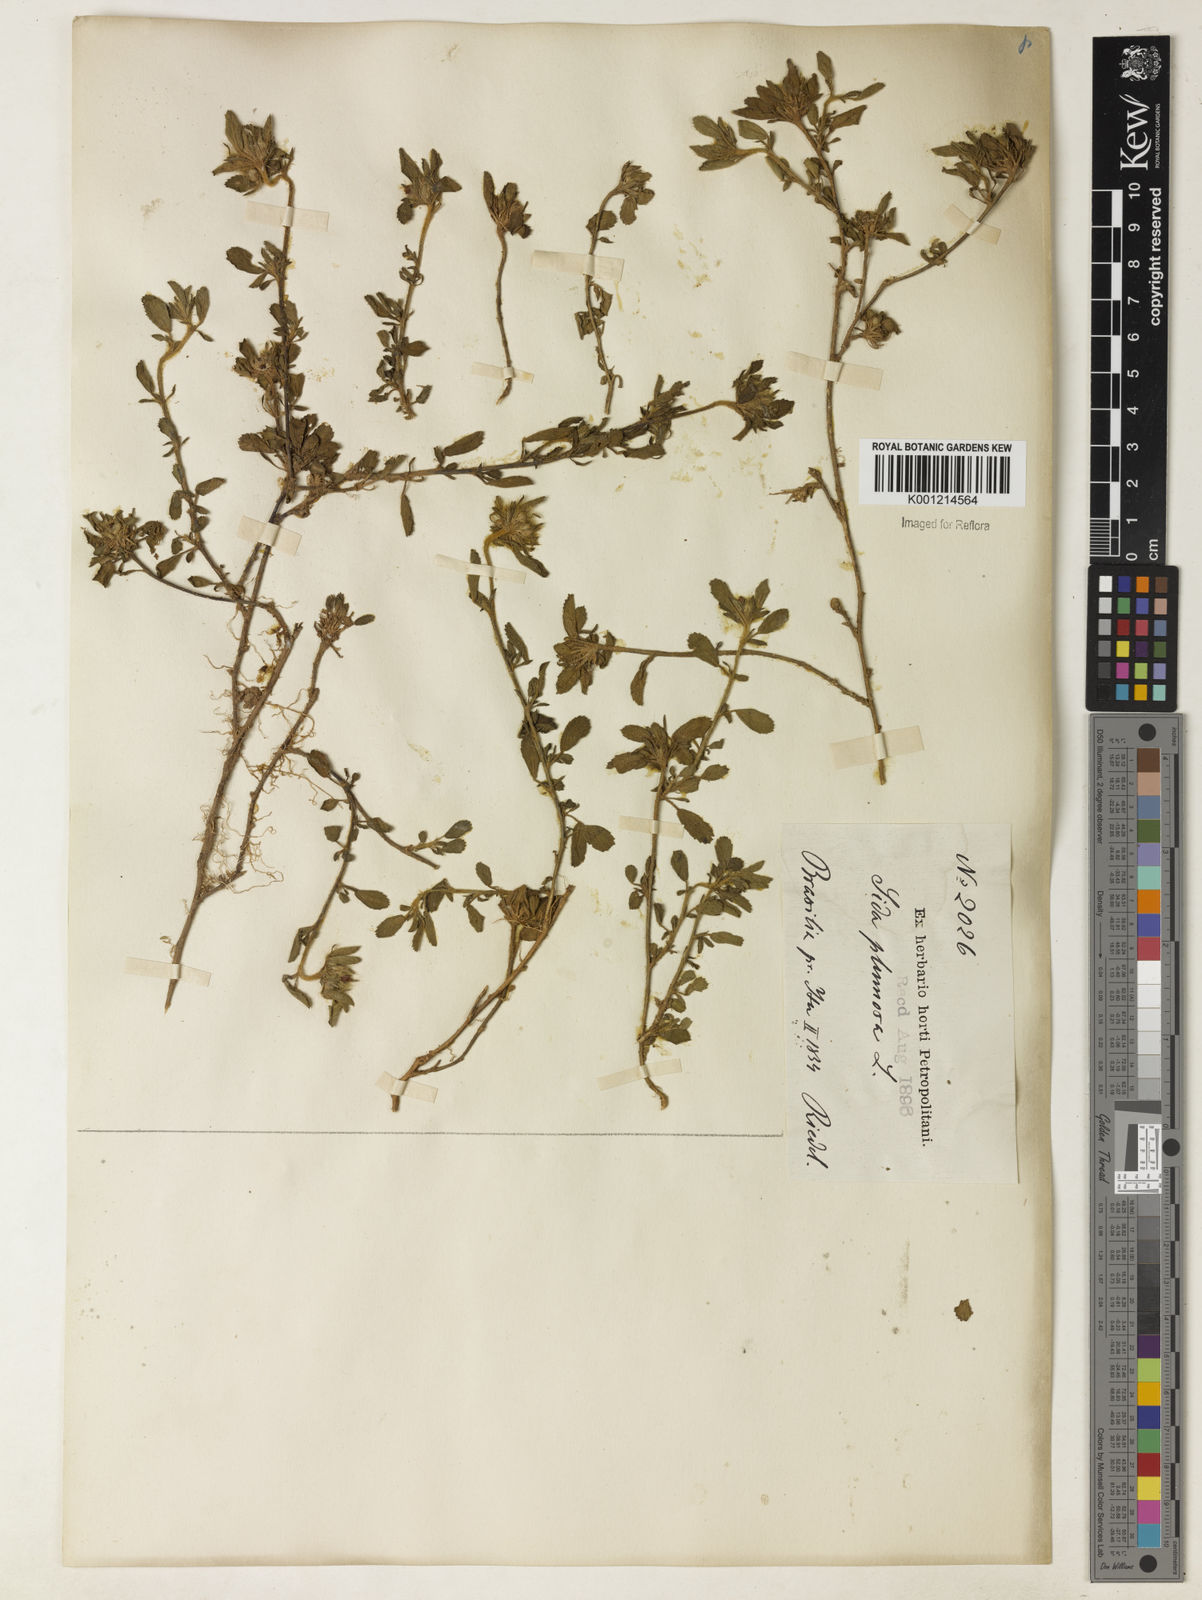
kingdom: Plantae
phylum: Tracheophyta
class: Magnoliopsida
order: Malvales
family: Malvaceae
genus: Sida
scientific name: Sida ciliaris
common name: Bracted fanpetals
